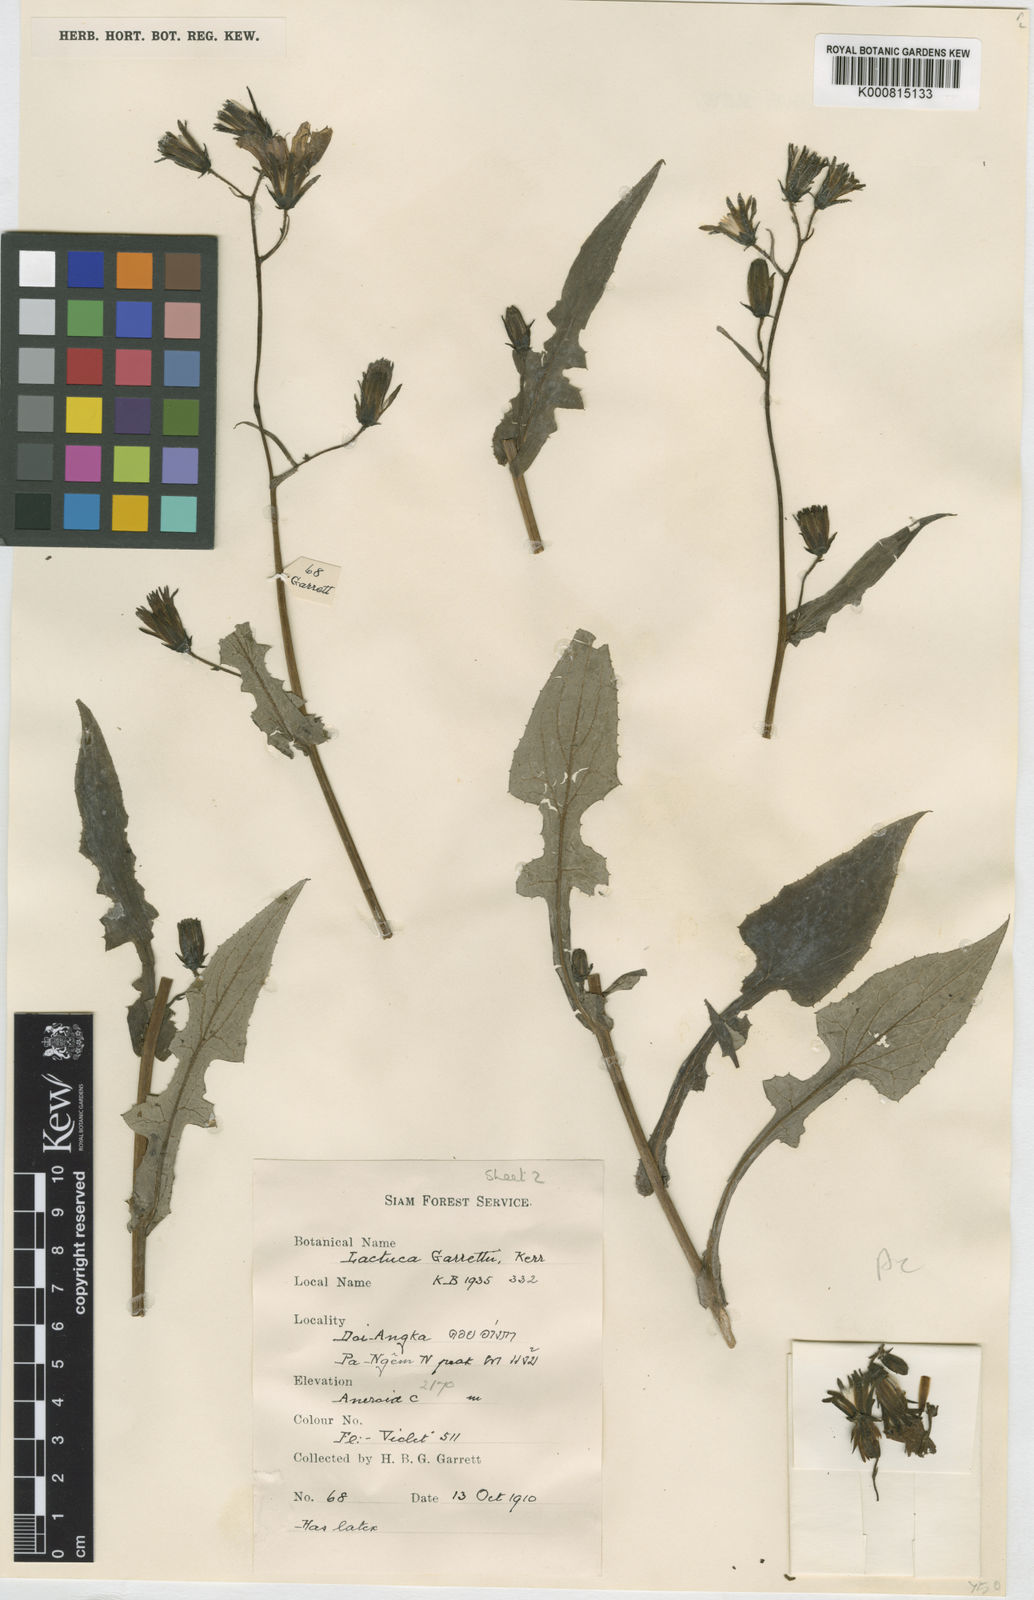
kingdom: Plantae
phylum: Tracheophyta
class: Magnoliopsida
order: Asterales
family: Asteraceae
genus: Lactuca
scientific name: Lactuca garrettii
